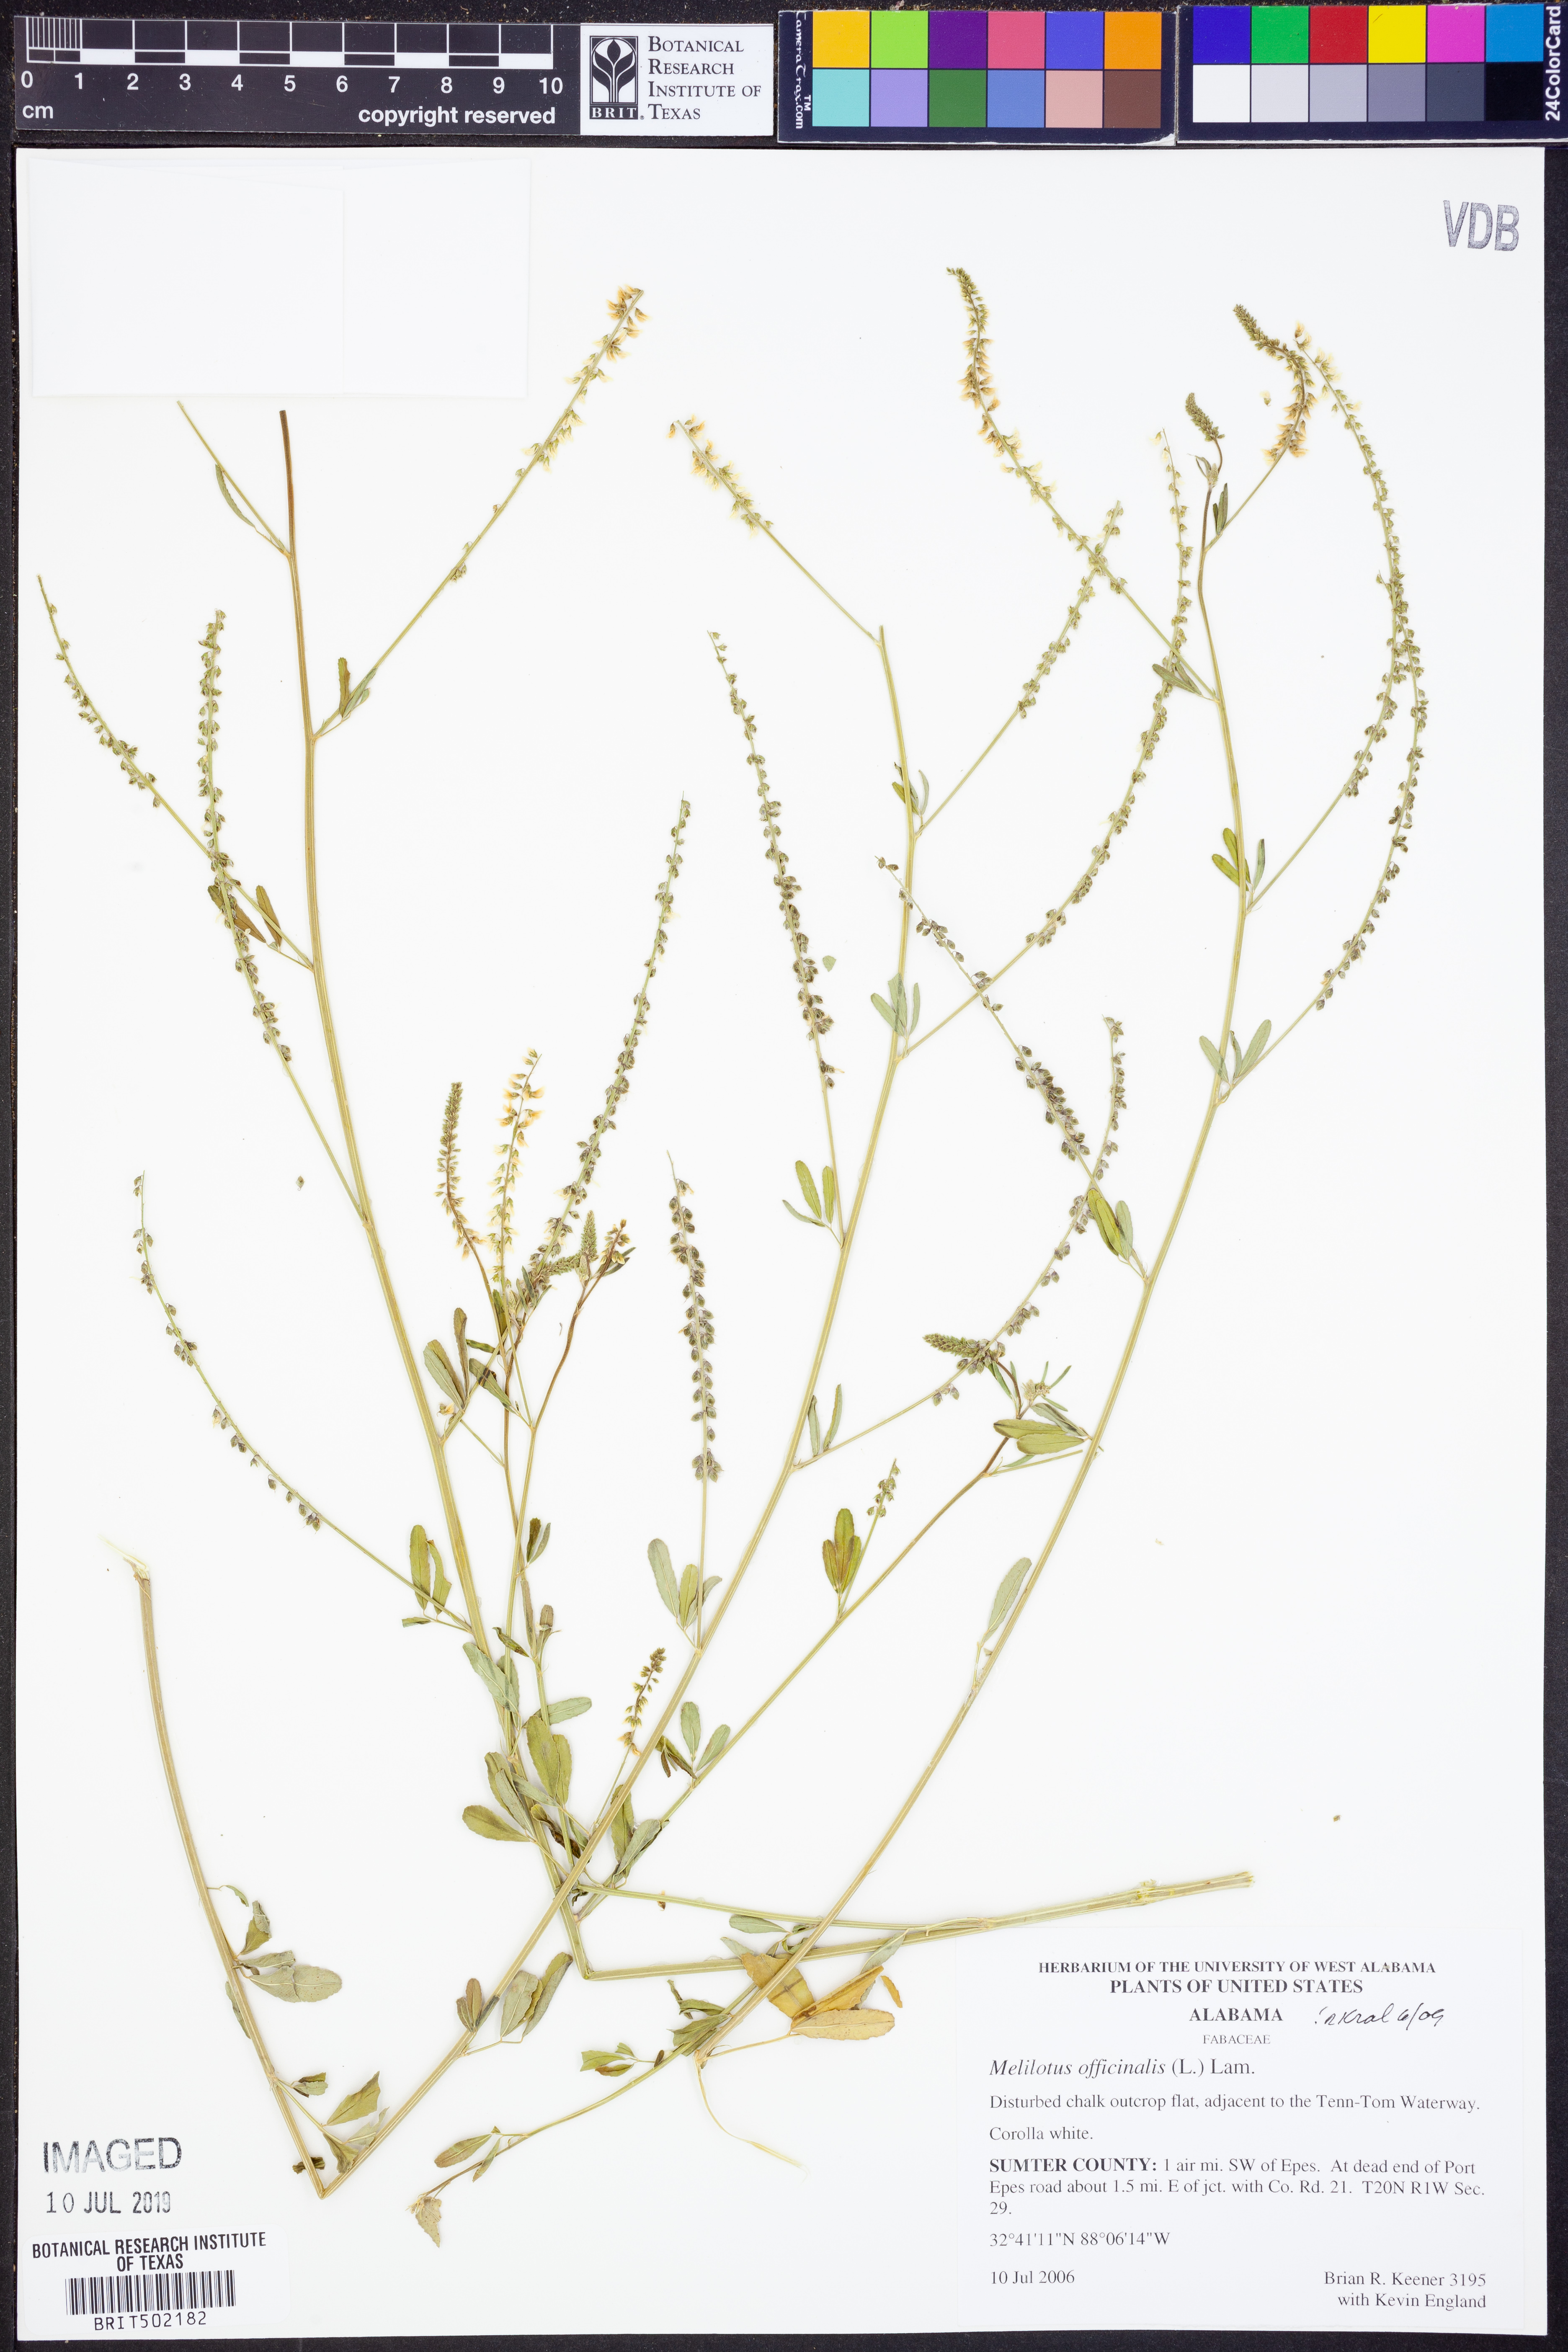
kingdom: Plantae
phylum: Tracheophyta
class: Magnoliopsida
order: Fabales
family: Fabaceae
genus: Melilotus
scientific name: Melilotus officinalis
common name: Sweetclover
